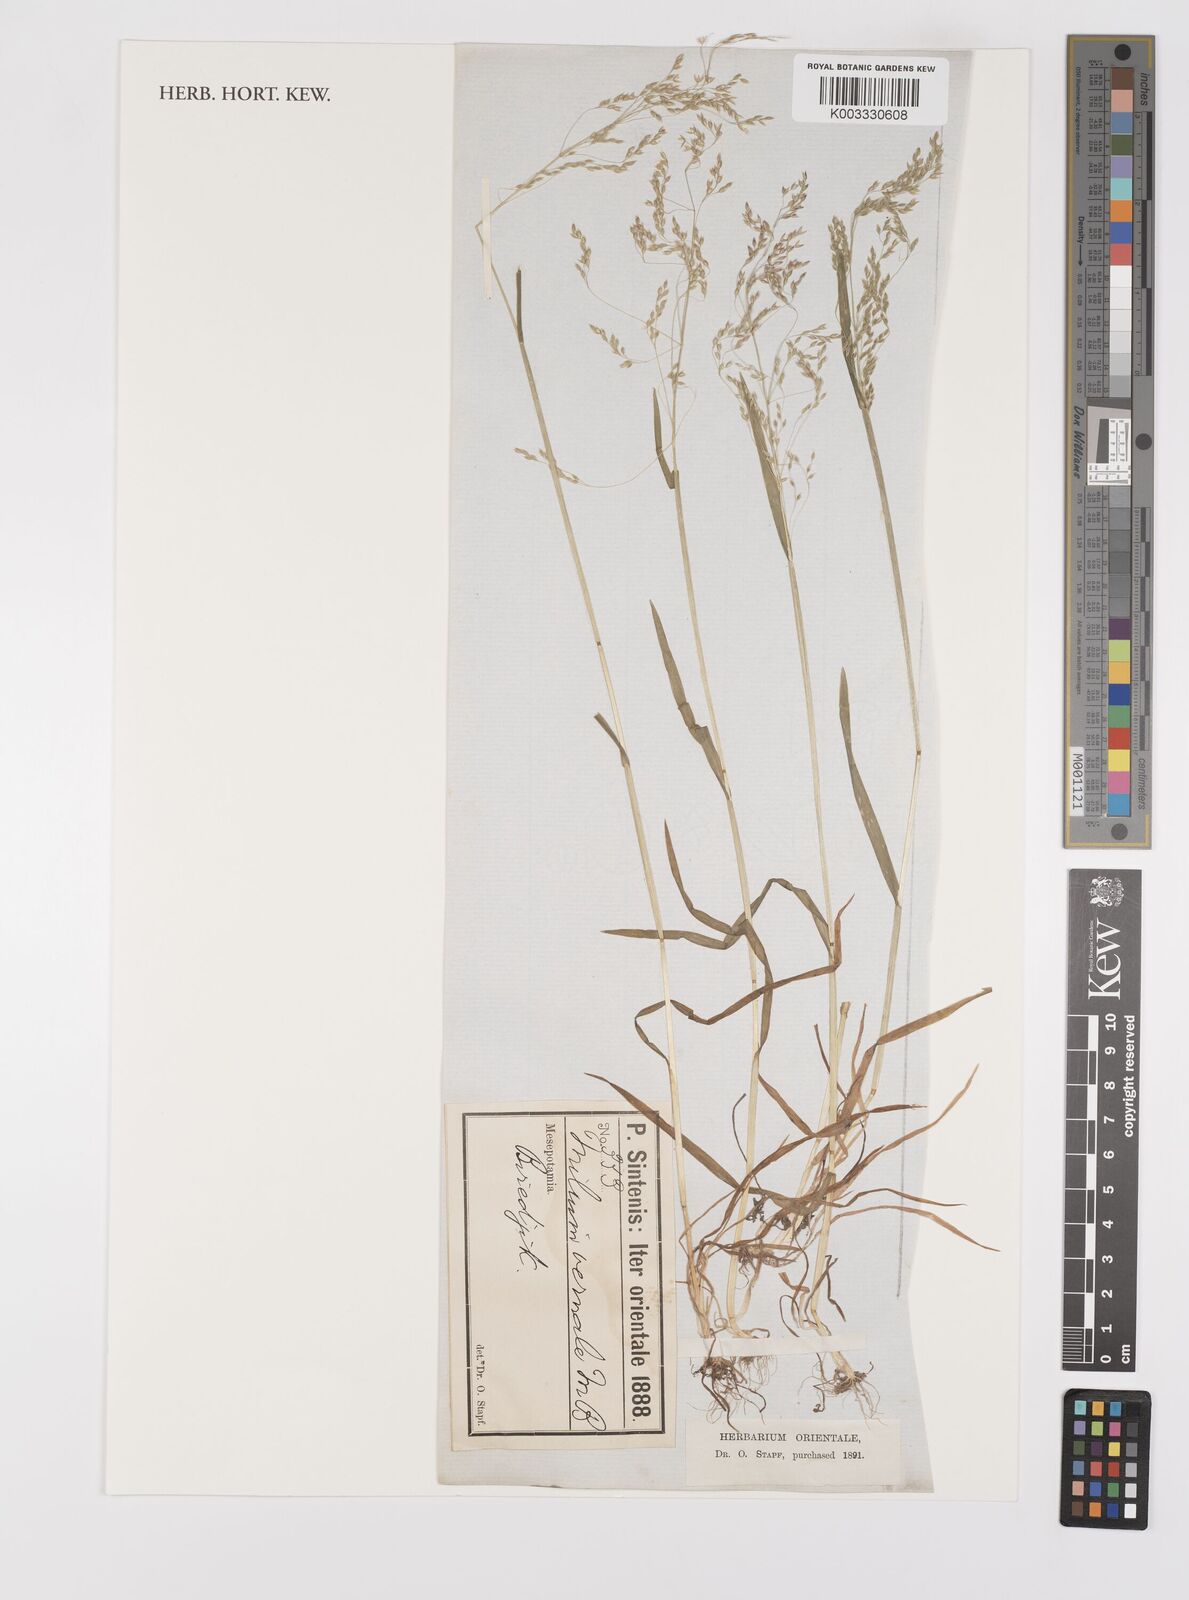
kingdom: Plantae
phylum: Tracheophyta
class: Liliopsida
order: Poales
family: Poaceae
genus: Milium
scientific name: Milium vernale
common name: Early millet
